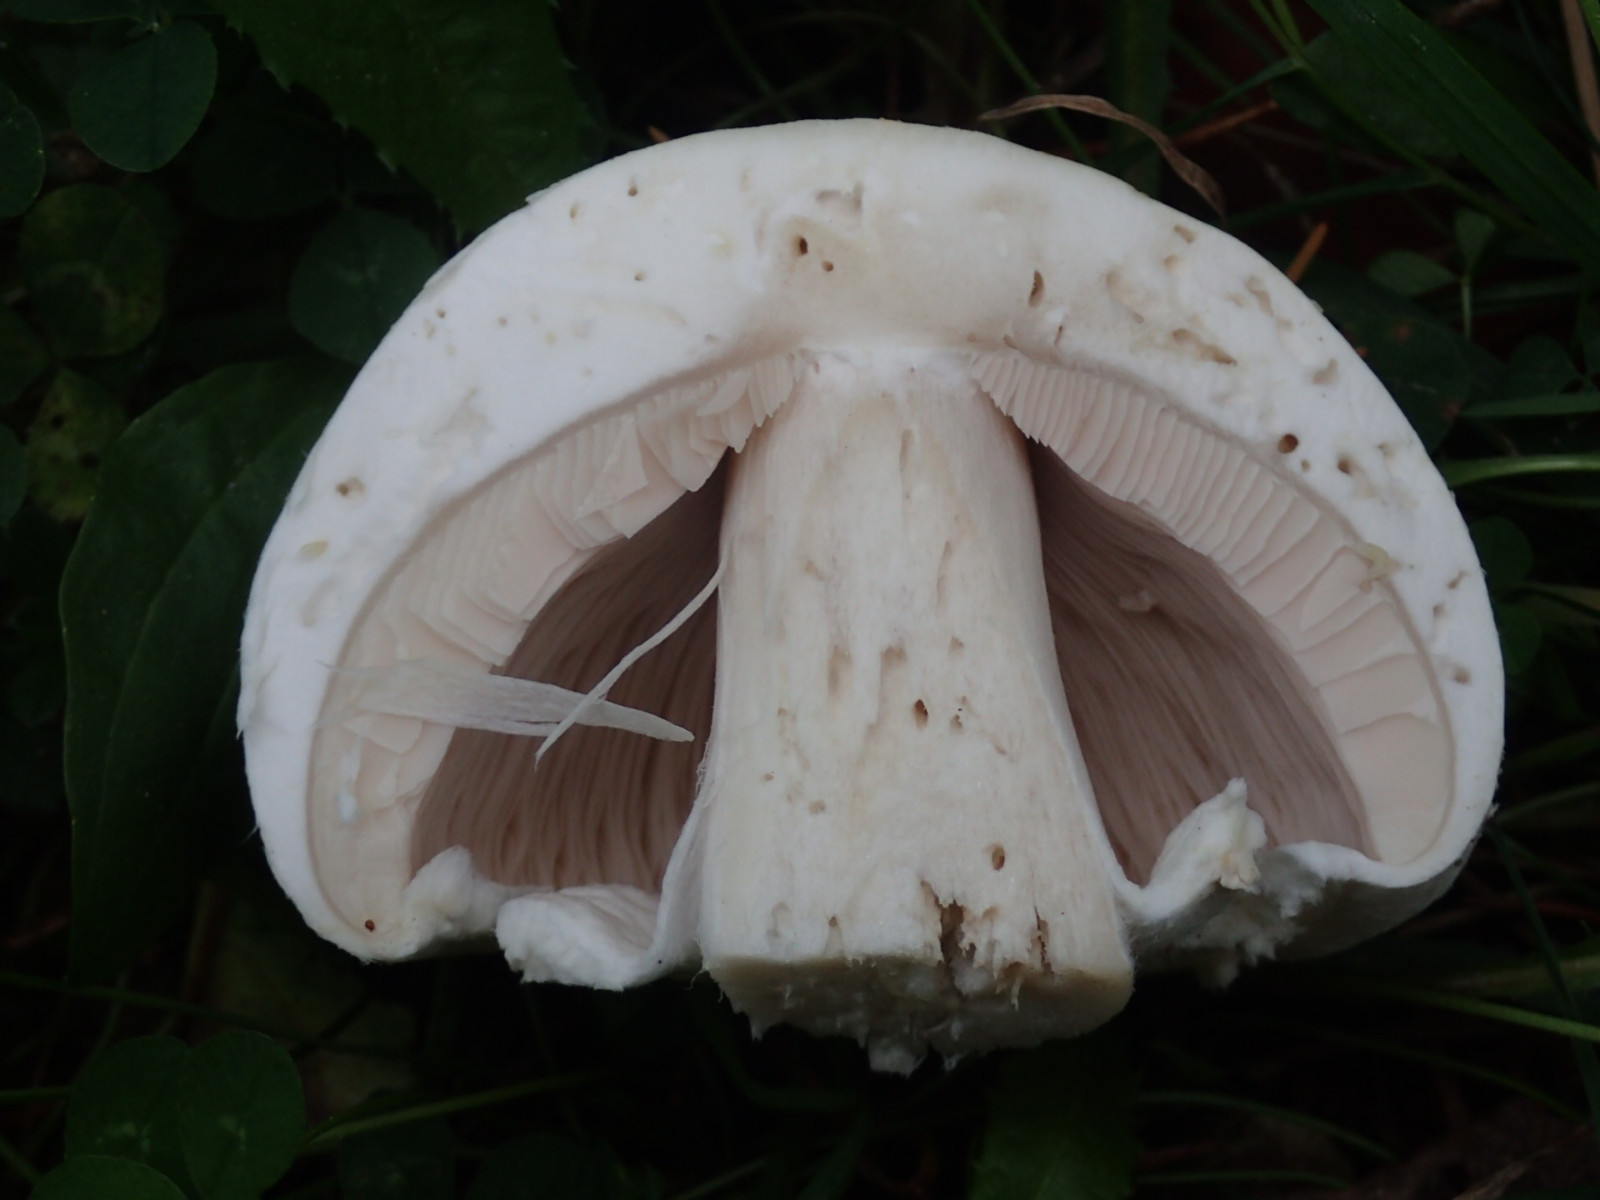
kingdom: Fungi
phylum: Basidiomycota
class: Agaricomycetes
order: Agaricales
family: Agaricaceae
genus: Agaricus
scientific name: Agaricus
